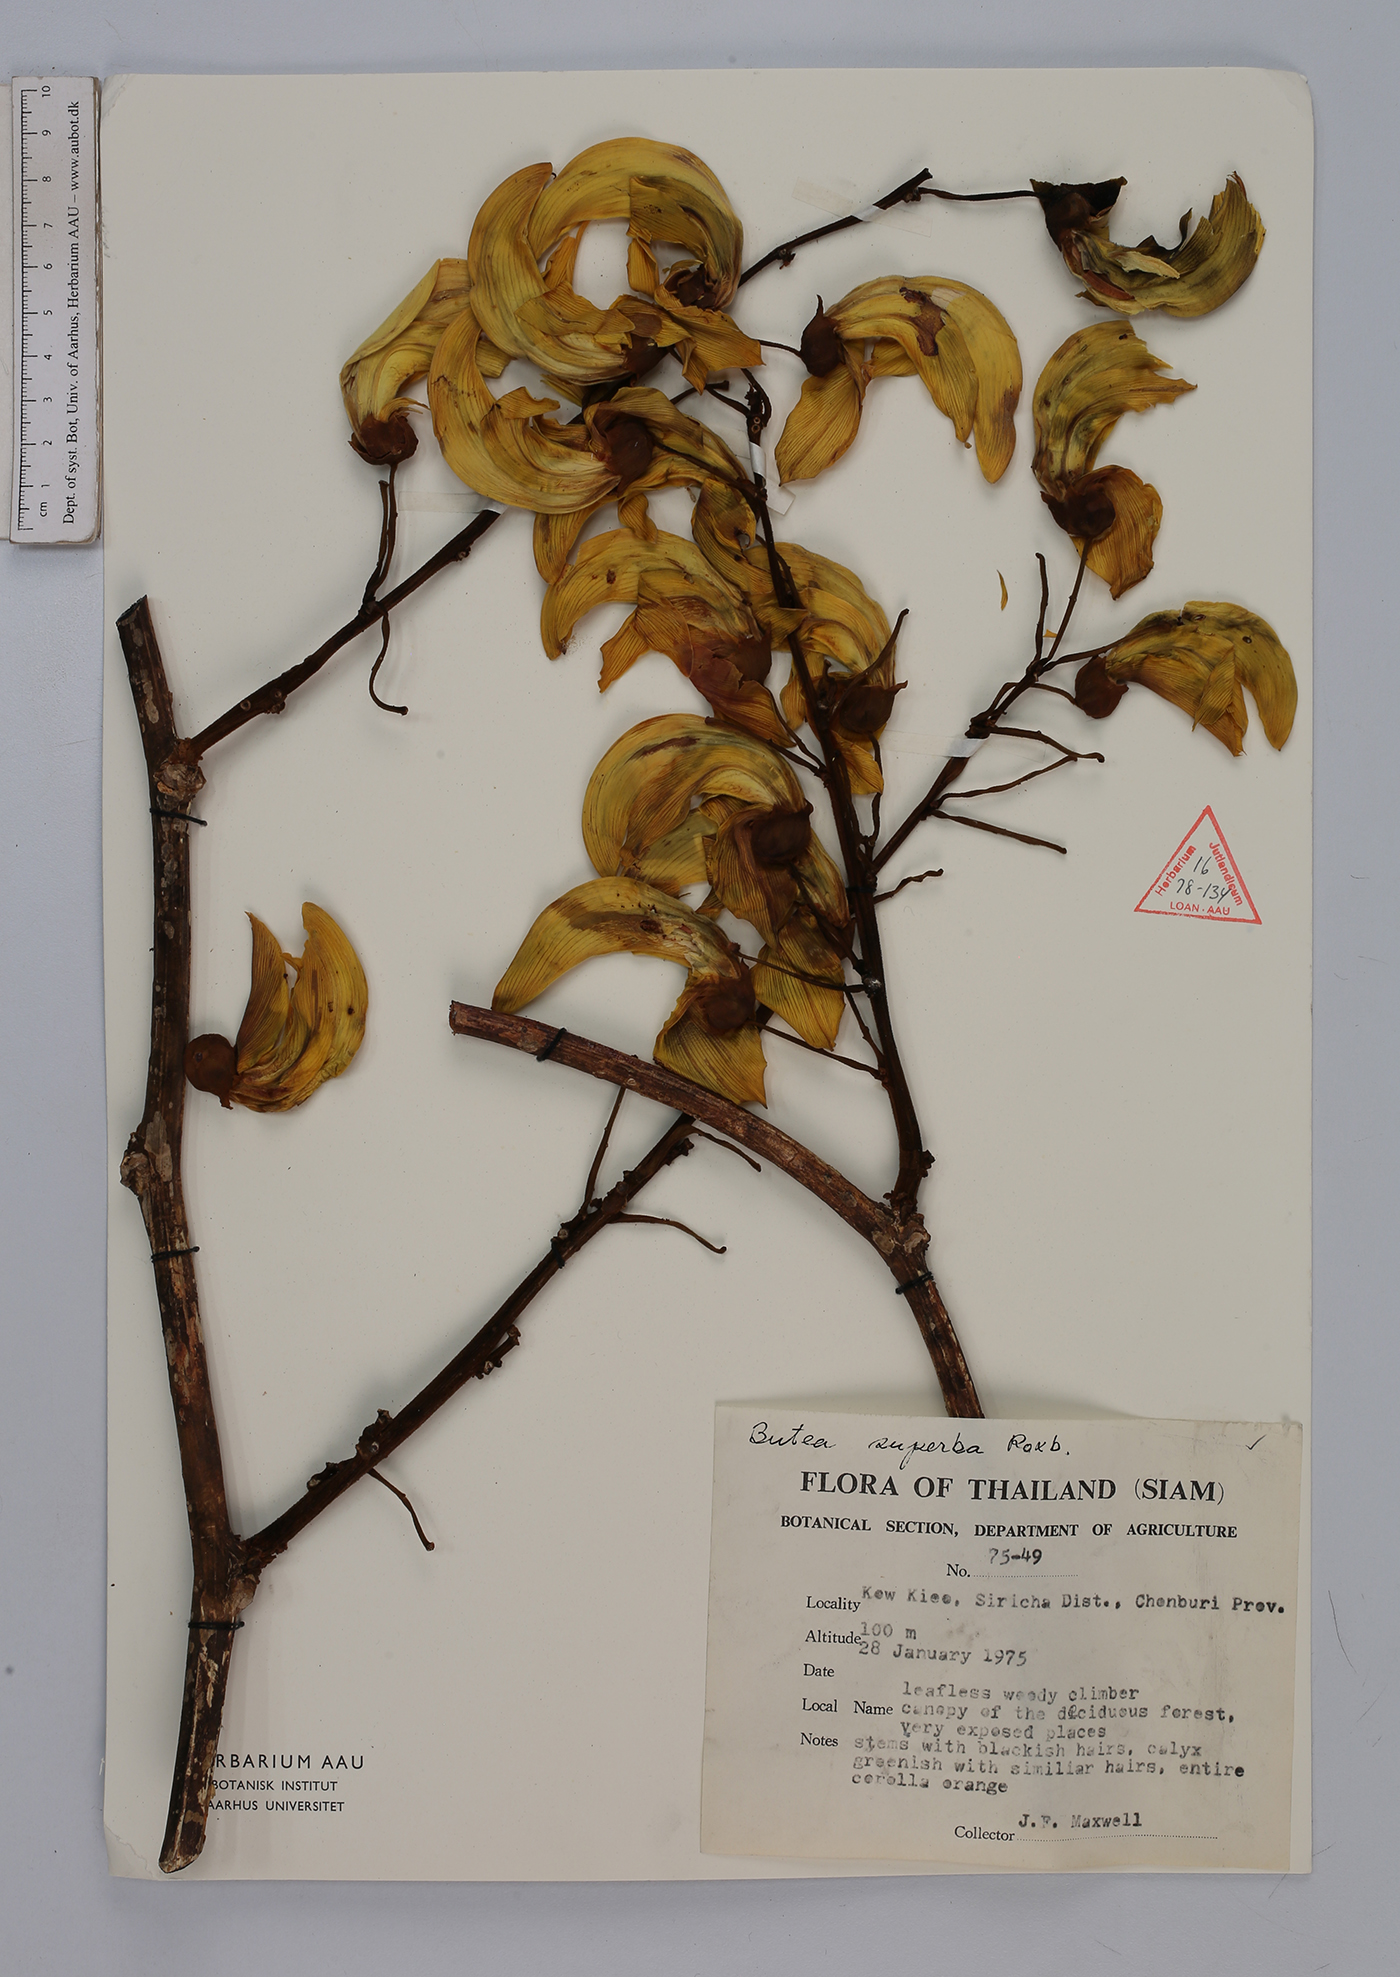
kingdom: Plantae
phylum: Tracheophyta
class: Magnoliopsida
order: Fabales
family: Fabaceae
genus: Butea
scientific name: Butea superba
